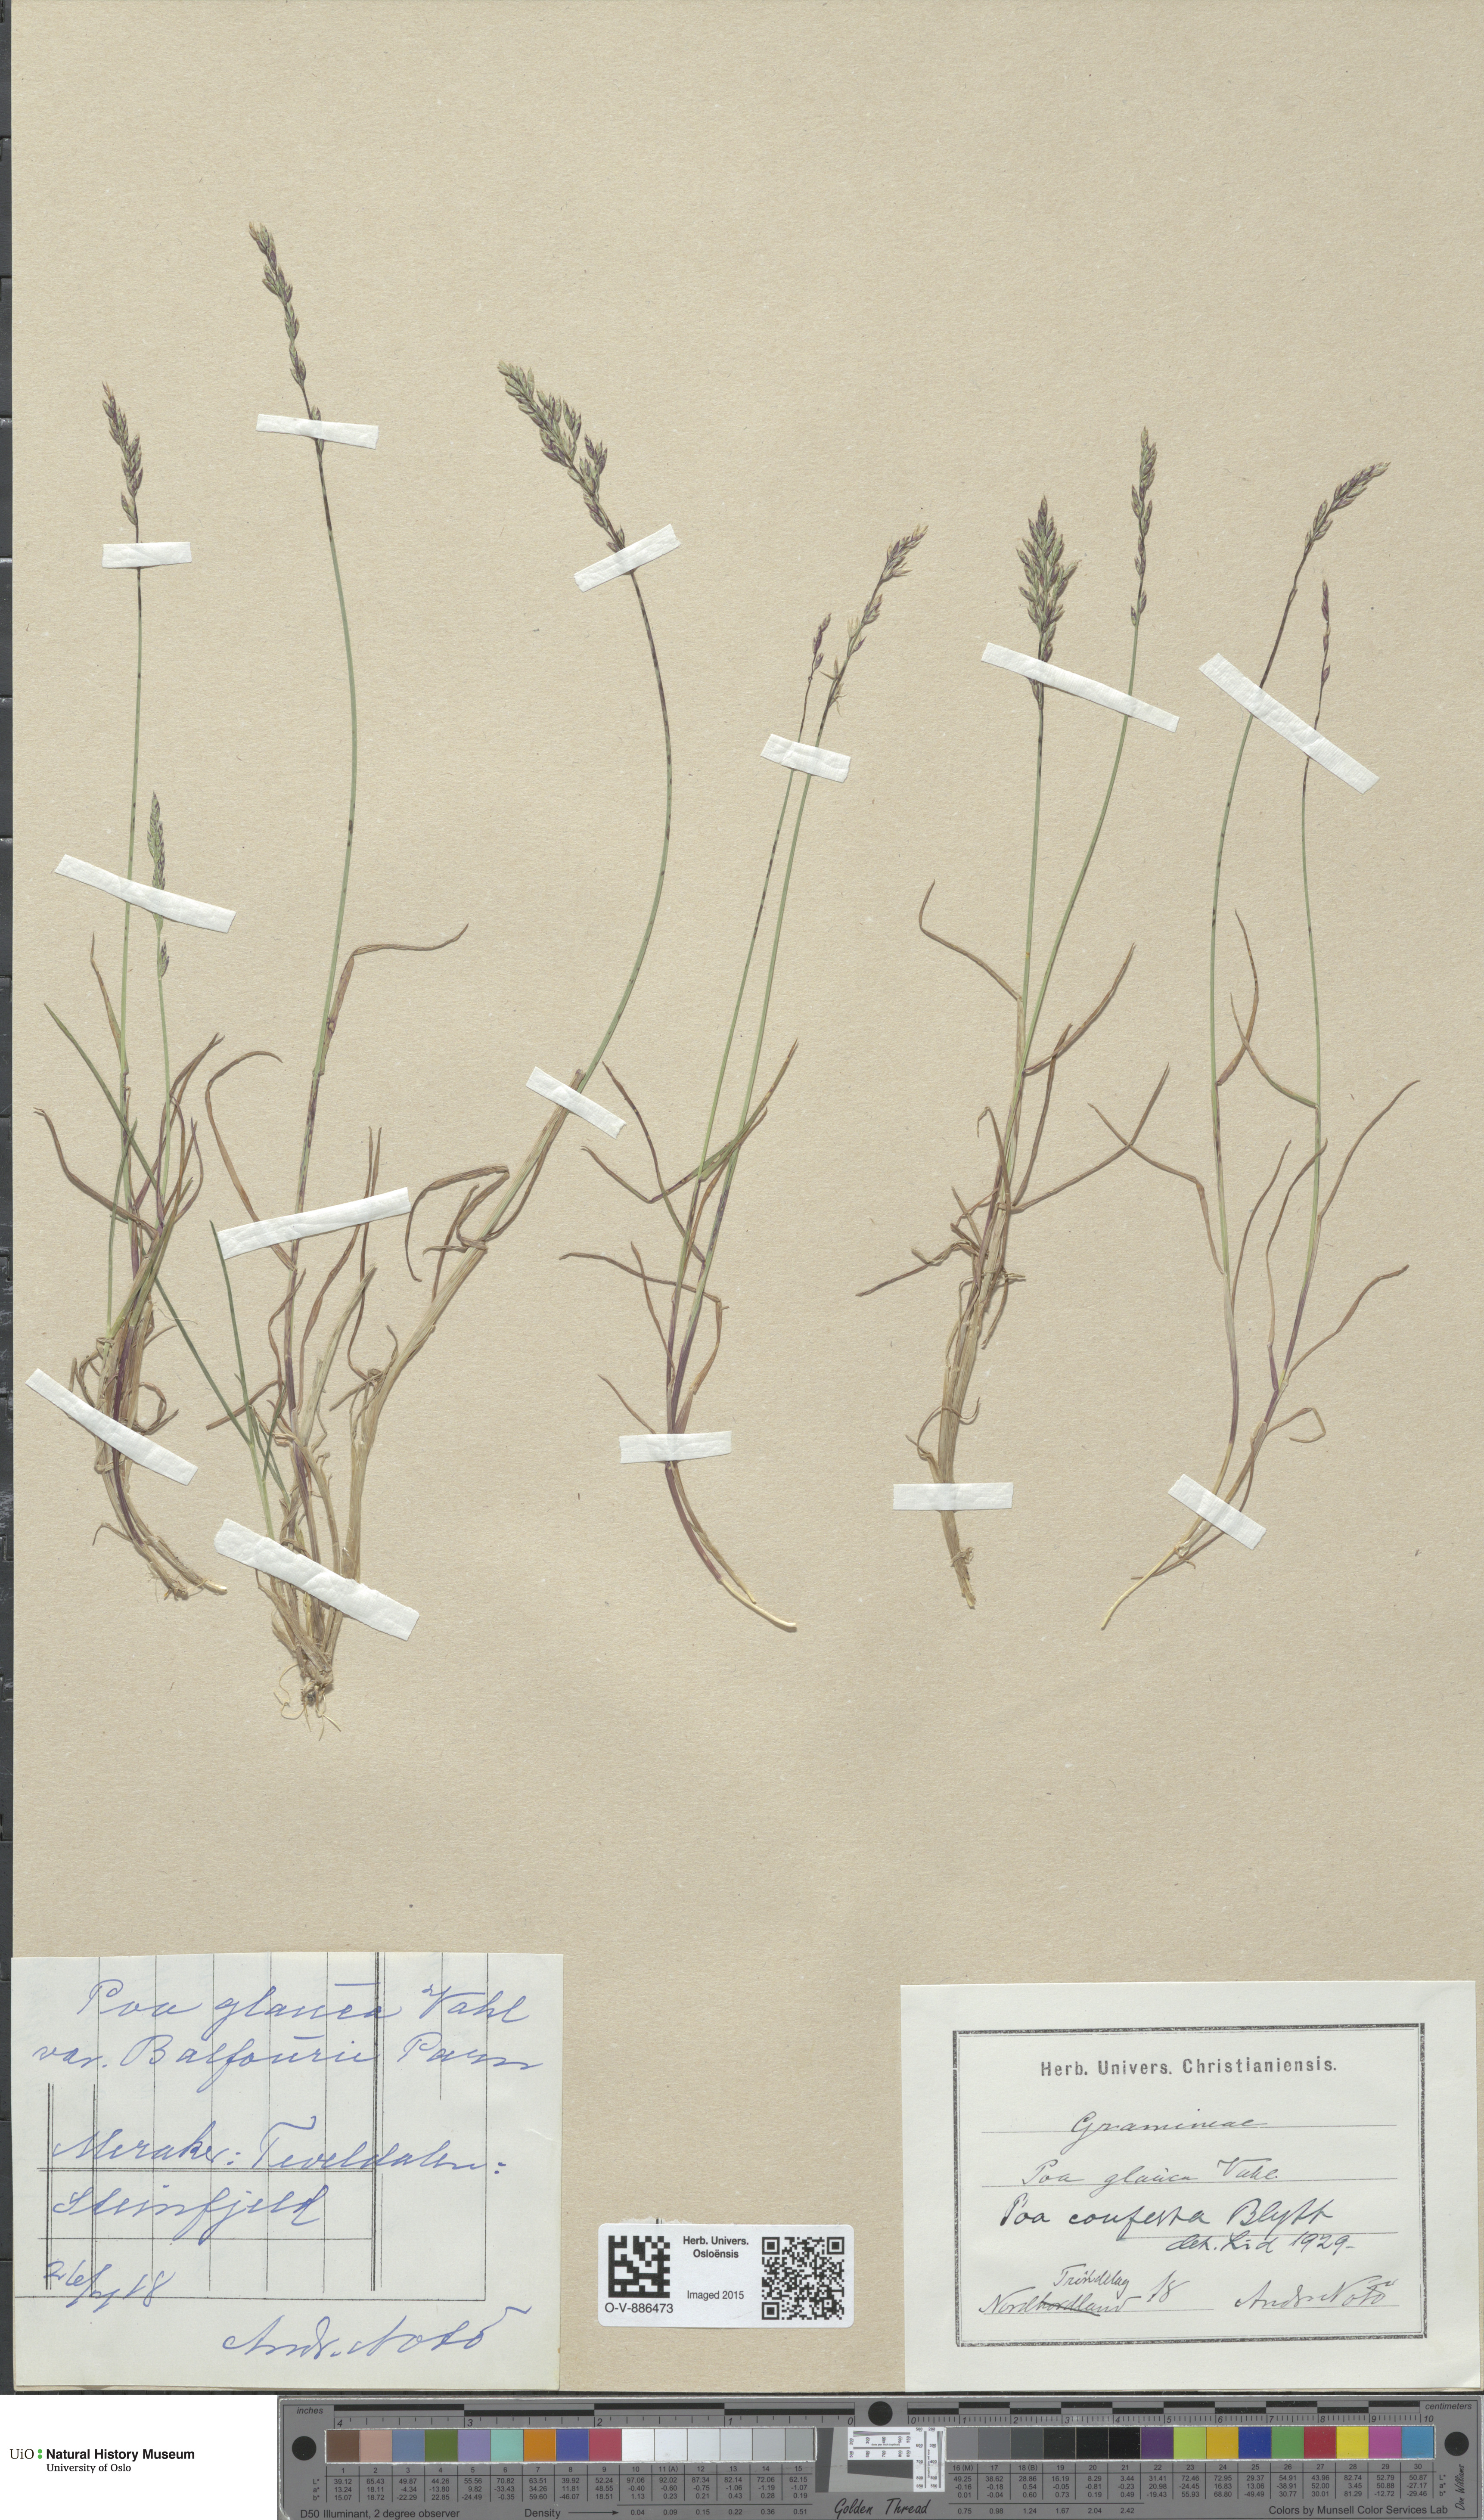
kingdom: Plantae
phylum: Tracheophyta
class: Liliopsida
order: Poales
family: Poaceae
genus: Poa
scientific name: Poa glauca
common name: Glaucous bluegrass
